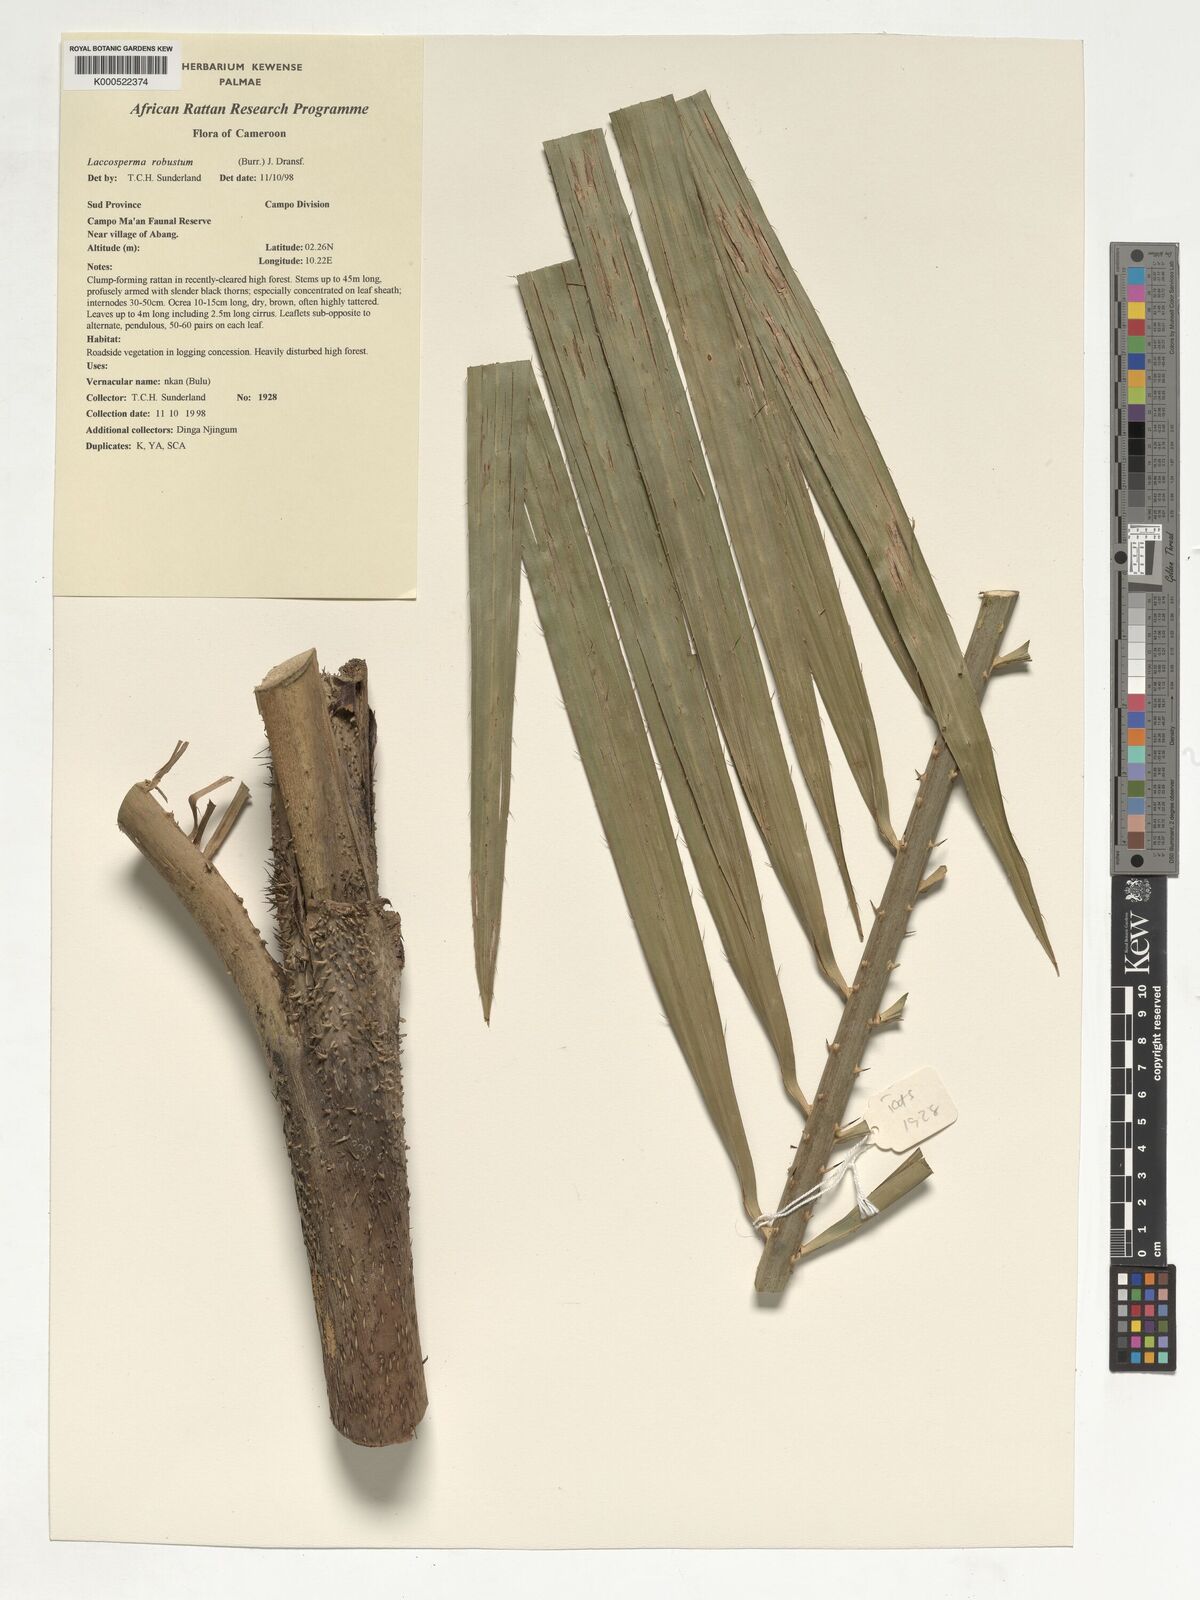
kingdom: Plantae
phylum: Tracheophyta
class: Liliopsida
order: Arecales
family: Arecaceae
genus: Laccosperma
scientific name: Laccosperma robustum
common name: Rattan
